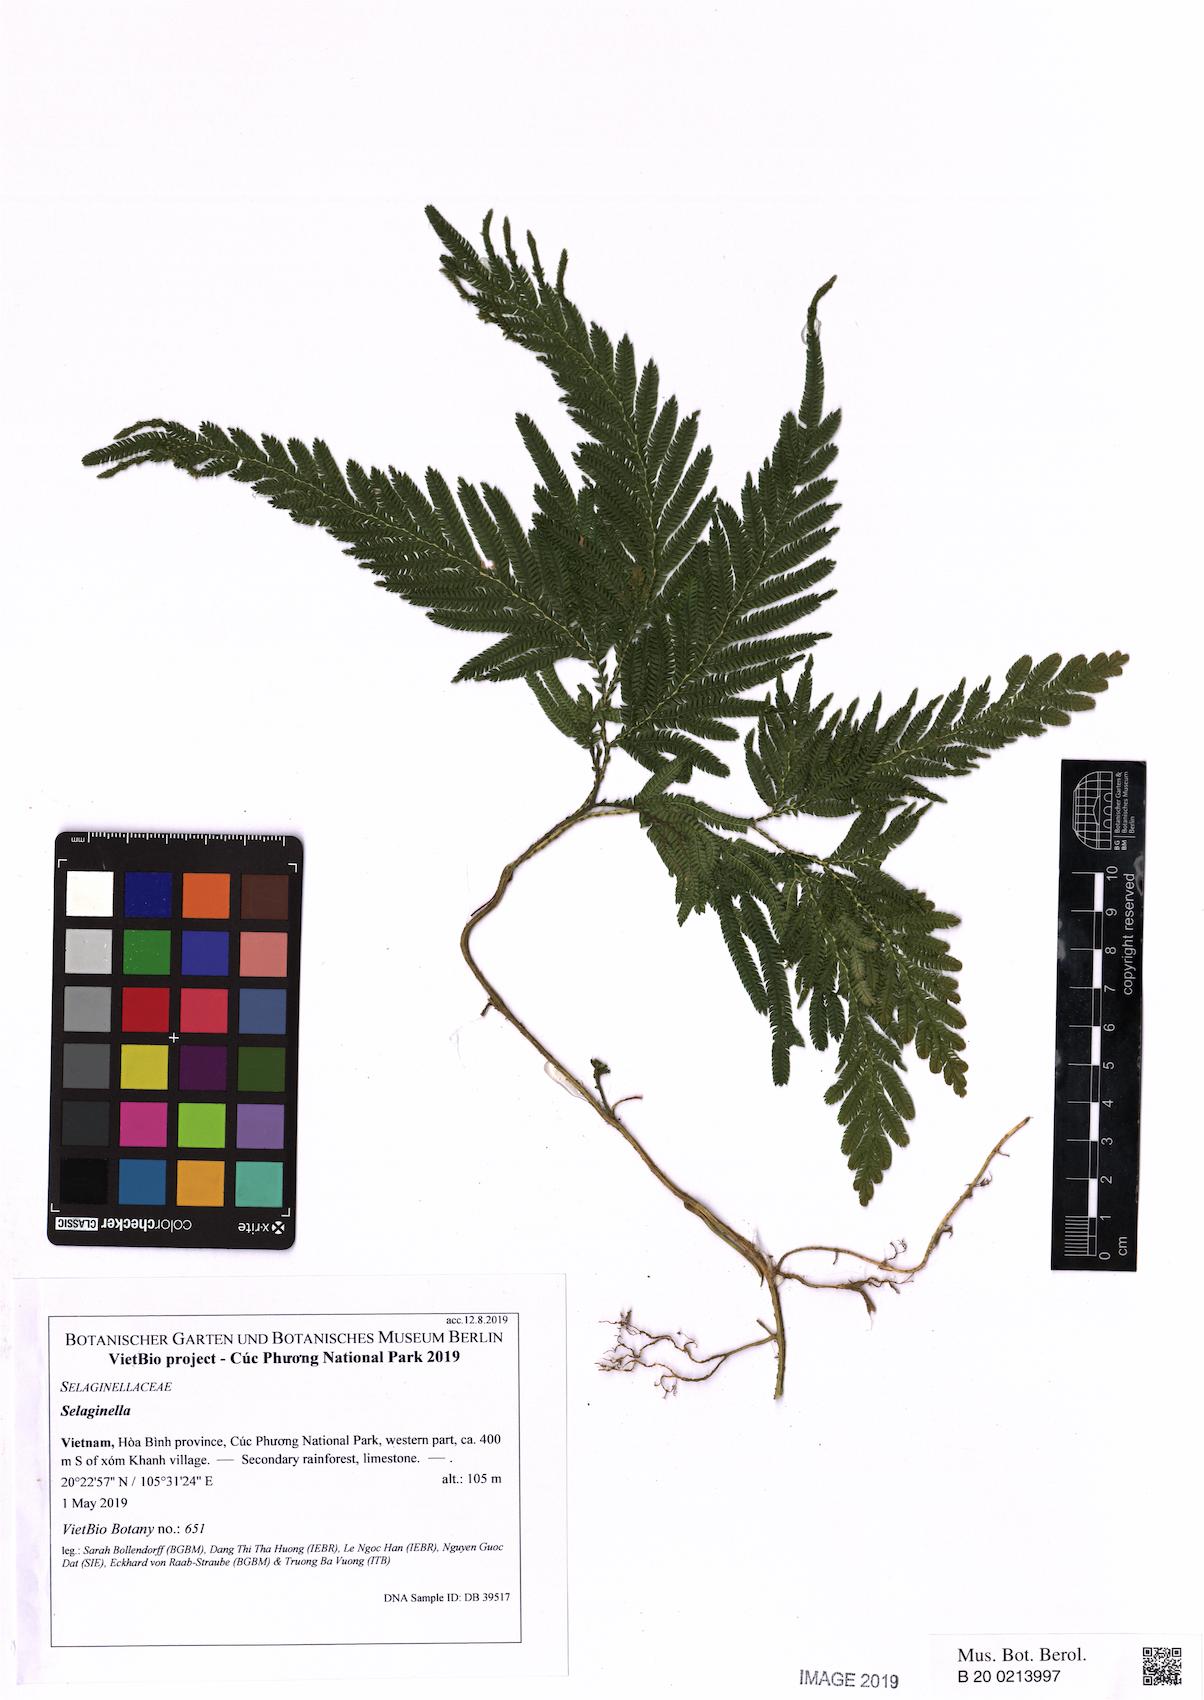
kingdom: Plantae
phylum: Tracheophyta
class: Lycopodiopsida
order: Selaginellales
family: Selaginellaceae
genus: Selaginella
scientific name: Selaginella
